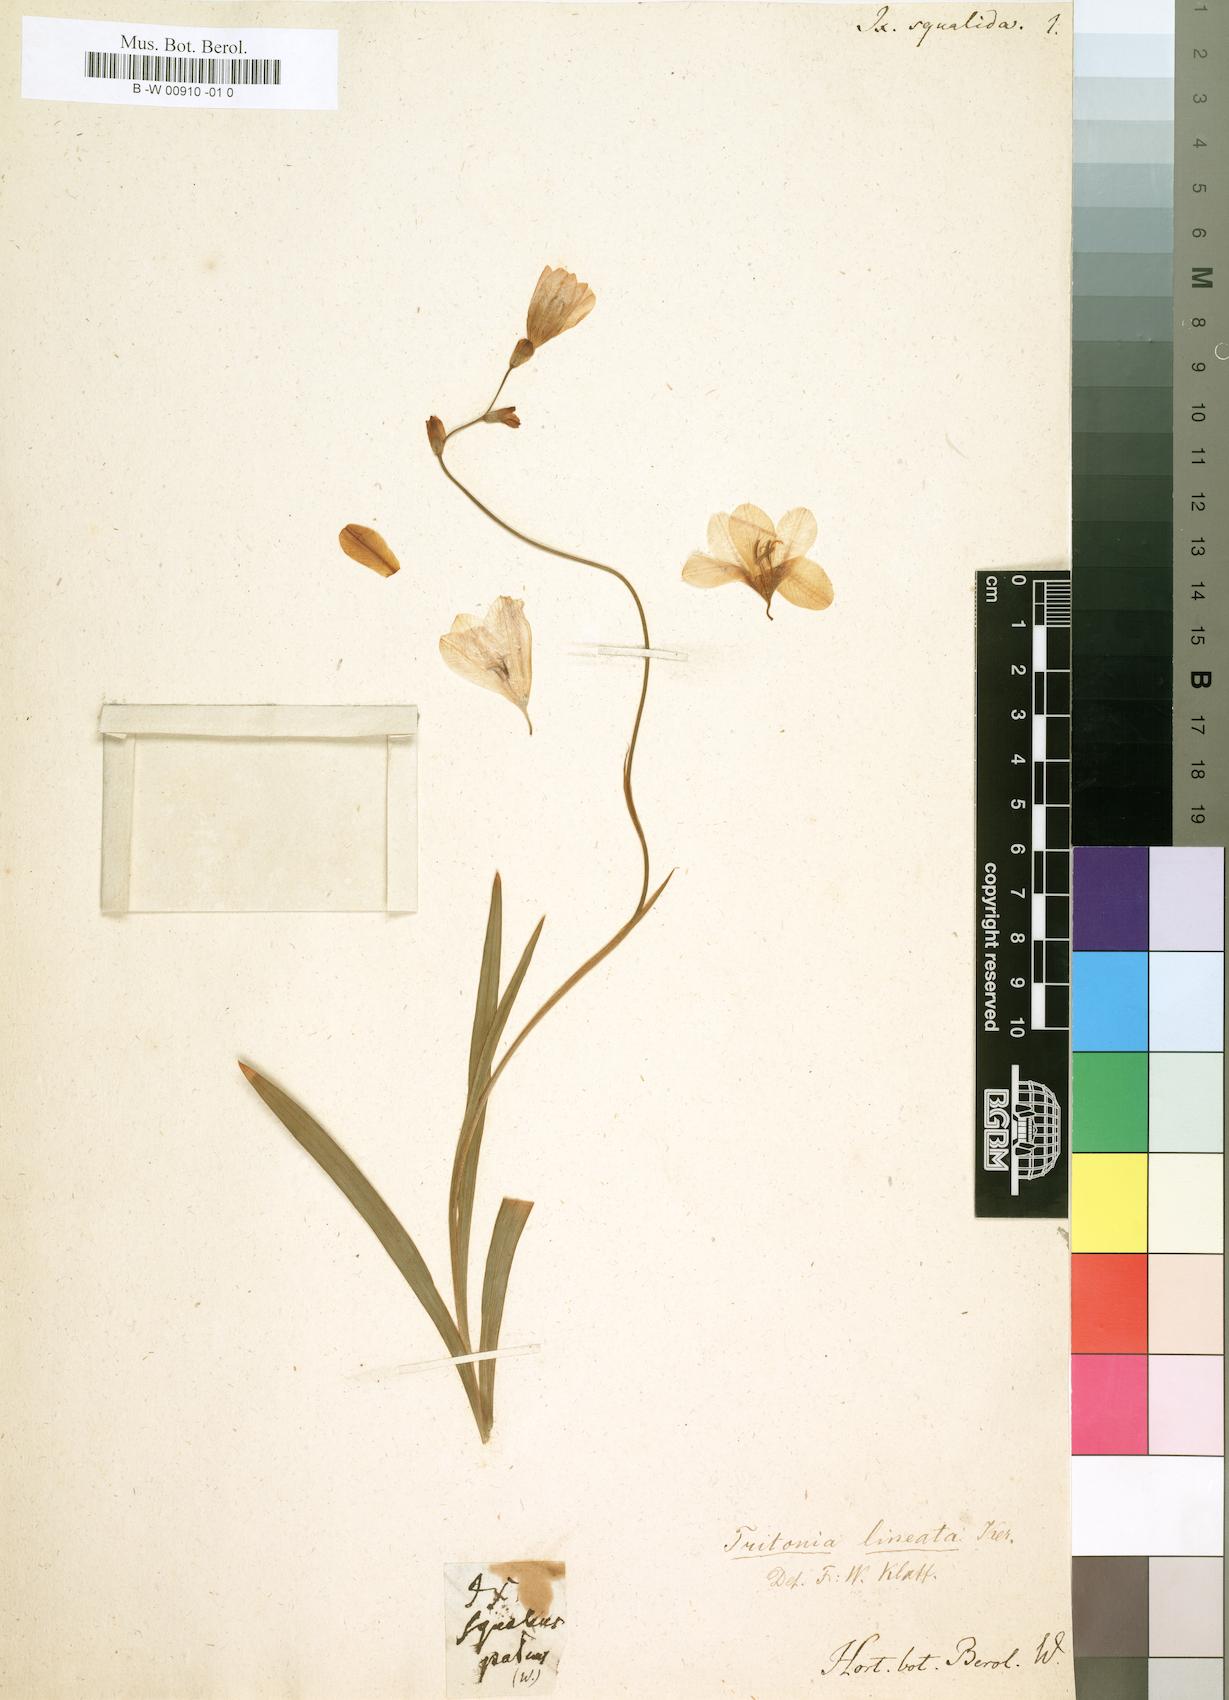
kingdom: Plantae
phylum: Tracheophyta
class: Liliopsida
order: Asparagales
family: Iridaceae
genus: Tritonia
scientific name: Tritonia securigera
